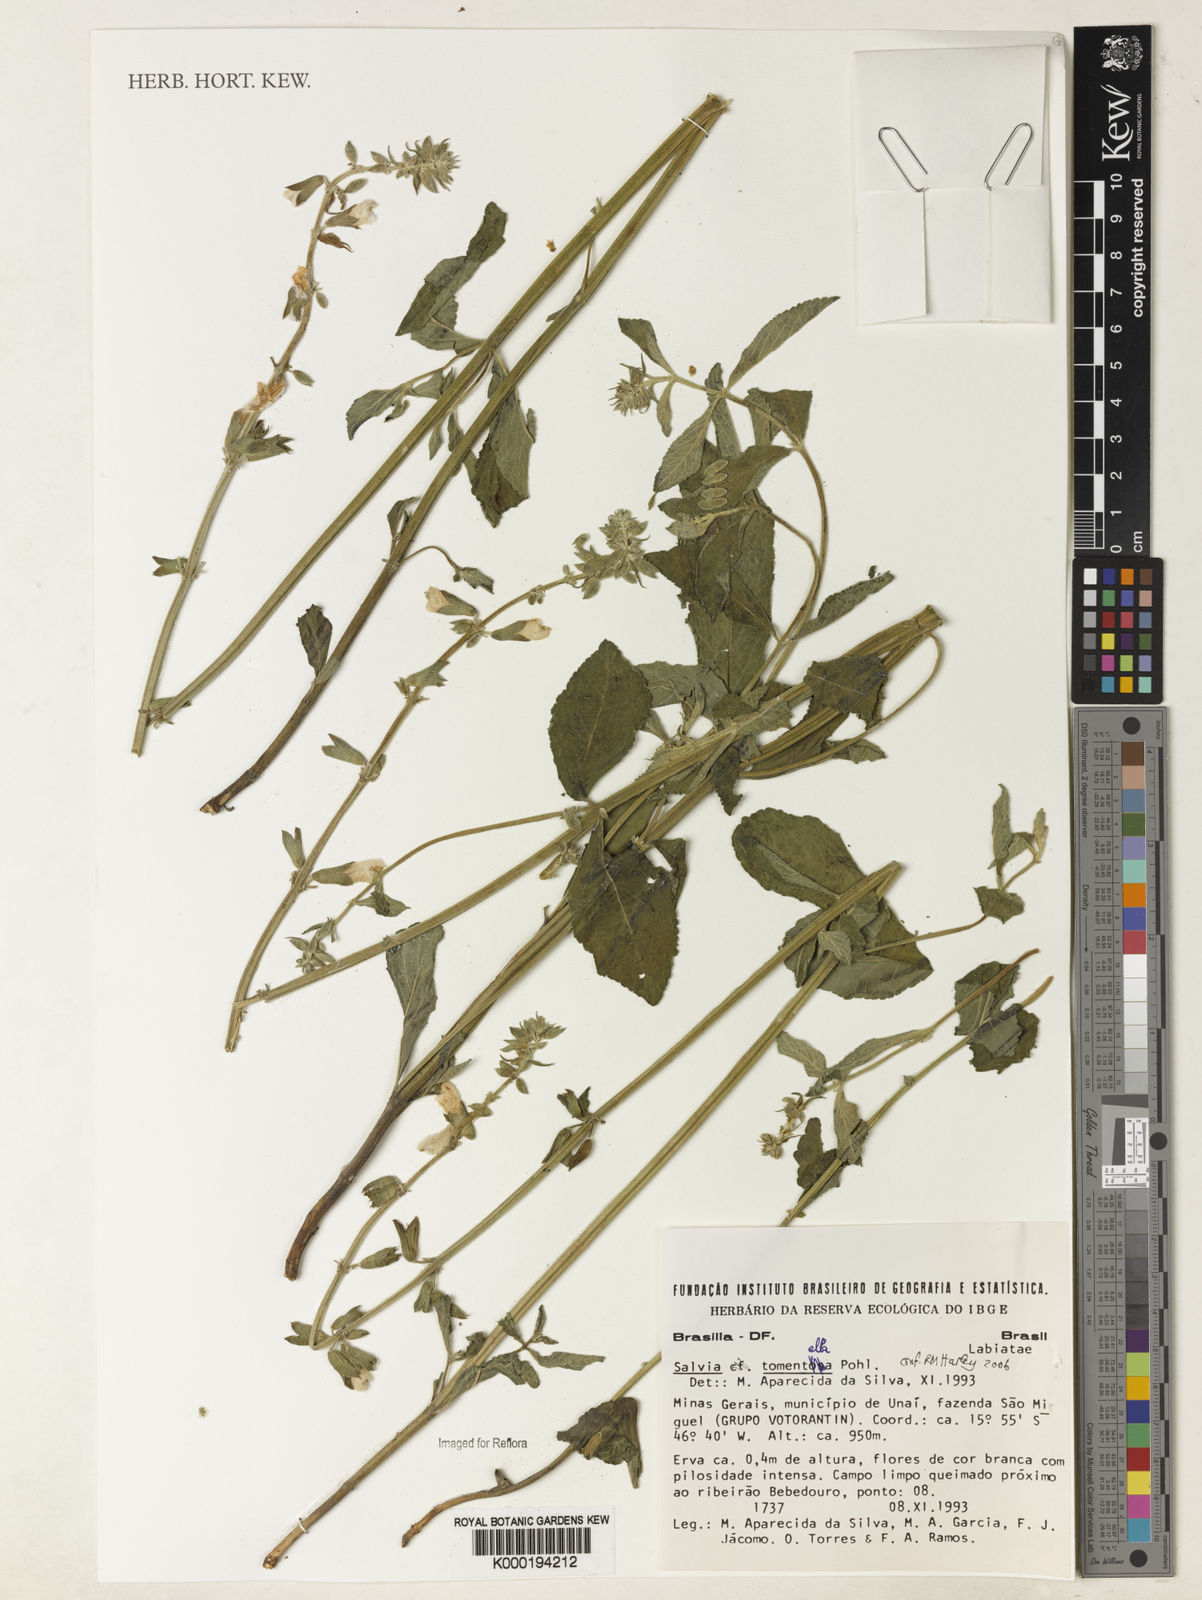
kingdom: Plantae
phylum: Tracheophyta
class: Magnoliopsida
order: Lamiales
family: Lamiaceae
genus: Salvia
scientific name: Salvia tomentella
